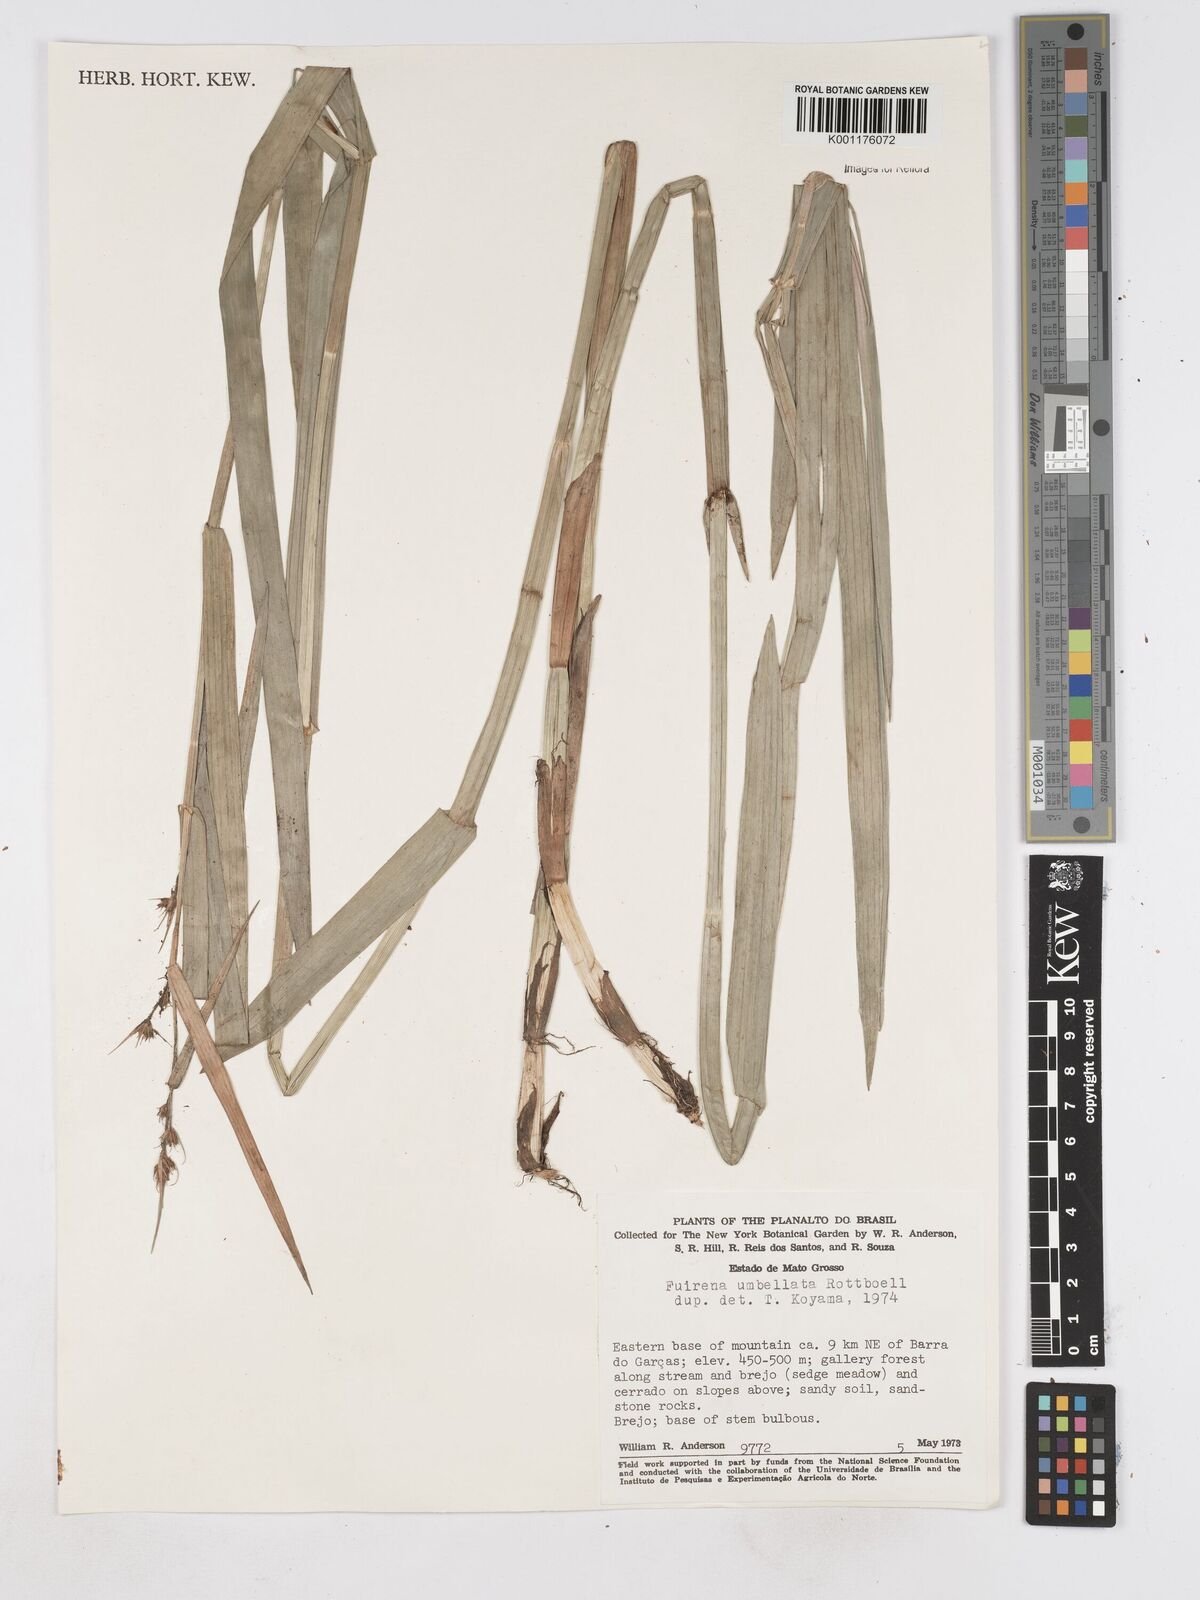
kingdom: Plantae
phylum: Tracheophyta
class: Liliopsida
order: Poales
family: Cyperaceae
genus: Fuirena
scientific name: Fuirena umbellata
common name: Yefen
